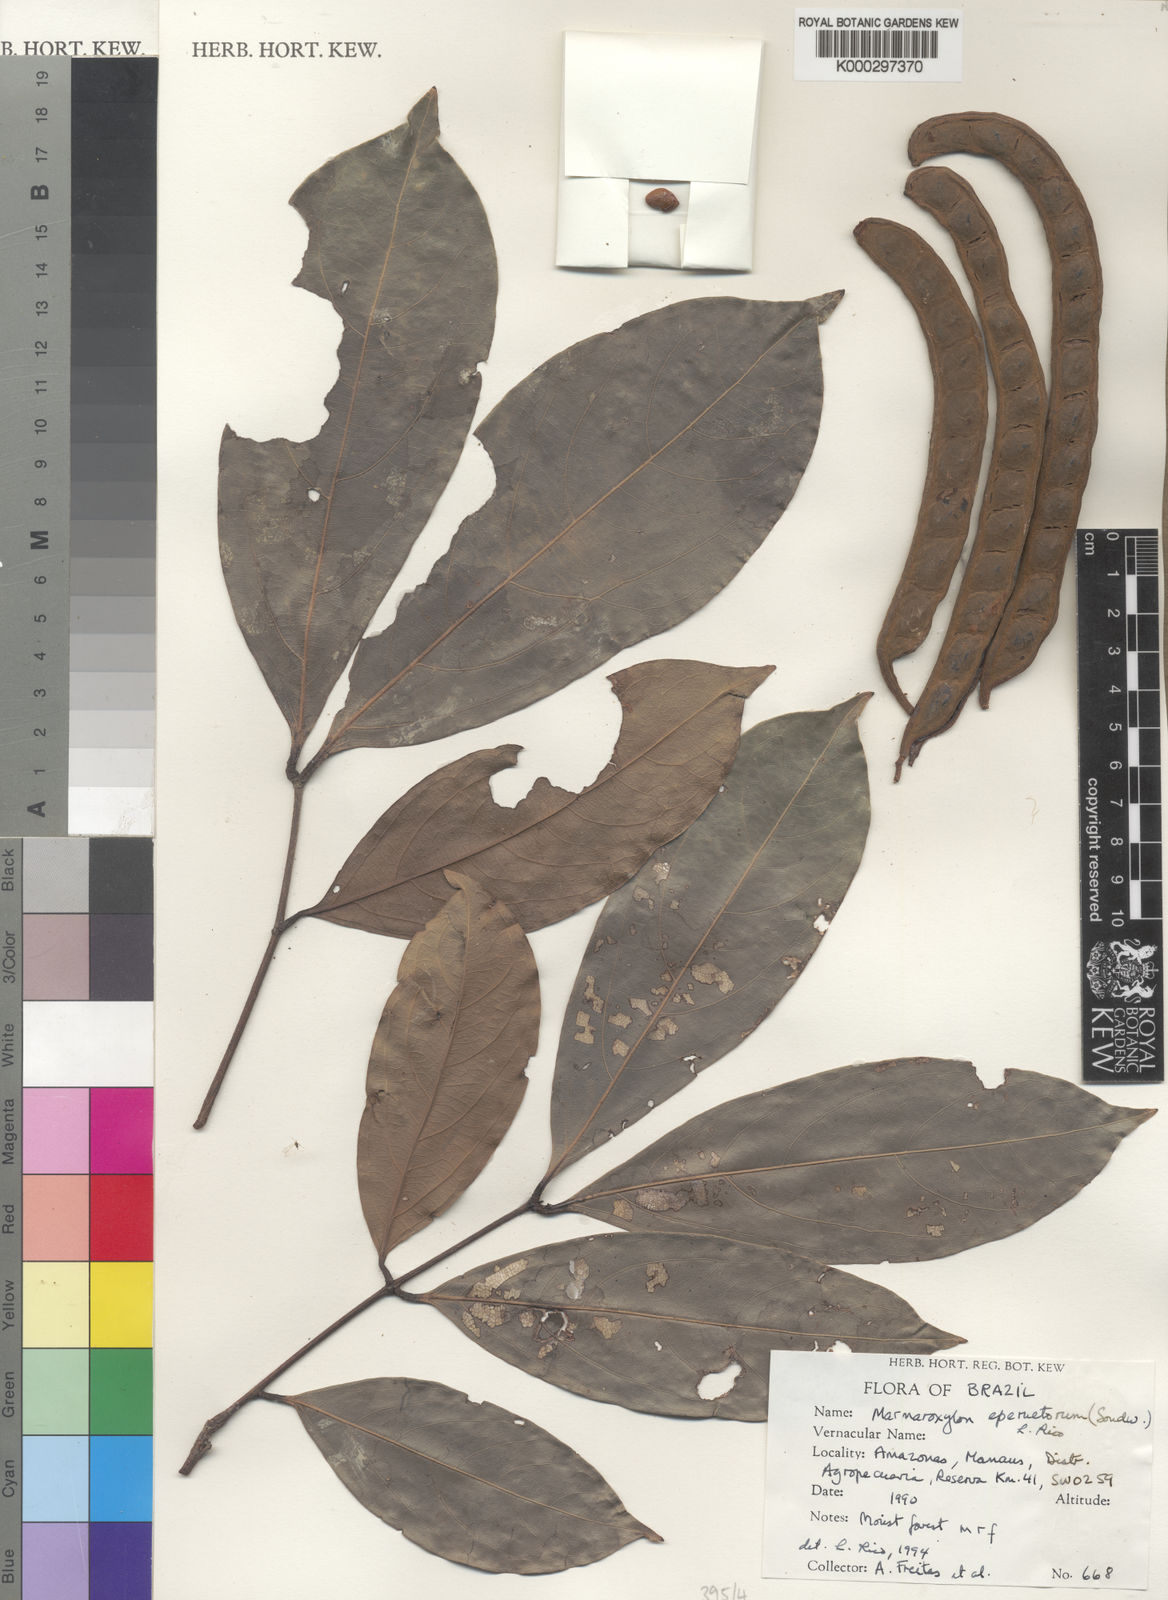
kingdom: Plantae
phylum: Tracheophyta
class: Magnoliopsida
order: Fabales
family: Fabaceae
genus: Zygia
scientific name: Zygia eperuetorum
